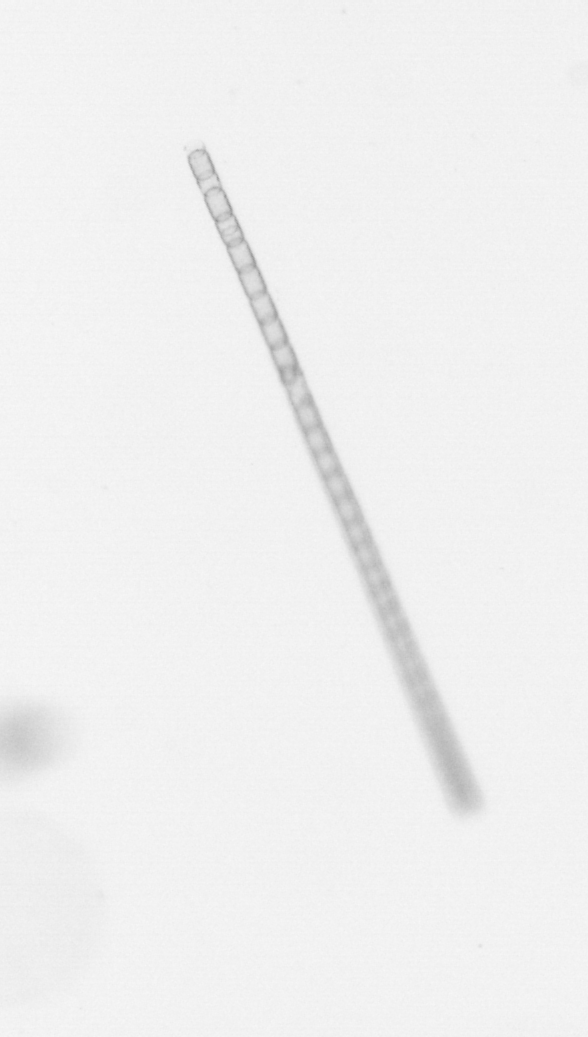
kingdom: Chromista
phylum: Ochrophyta
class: Bacillariophyceae
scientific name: Bacillariophyceae
